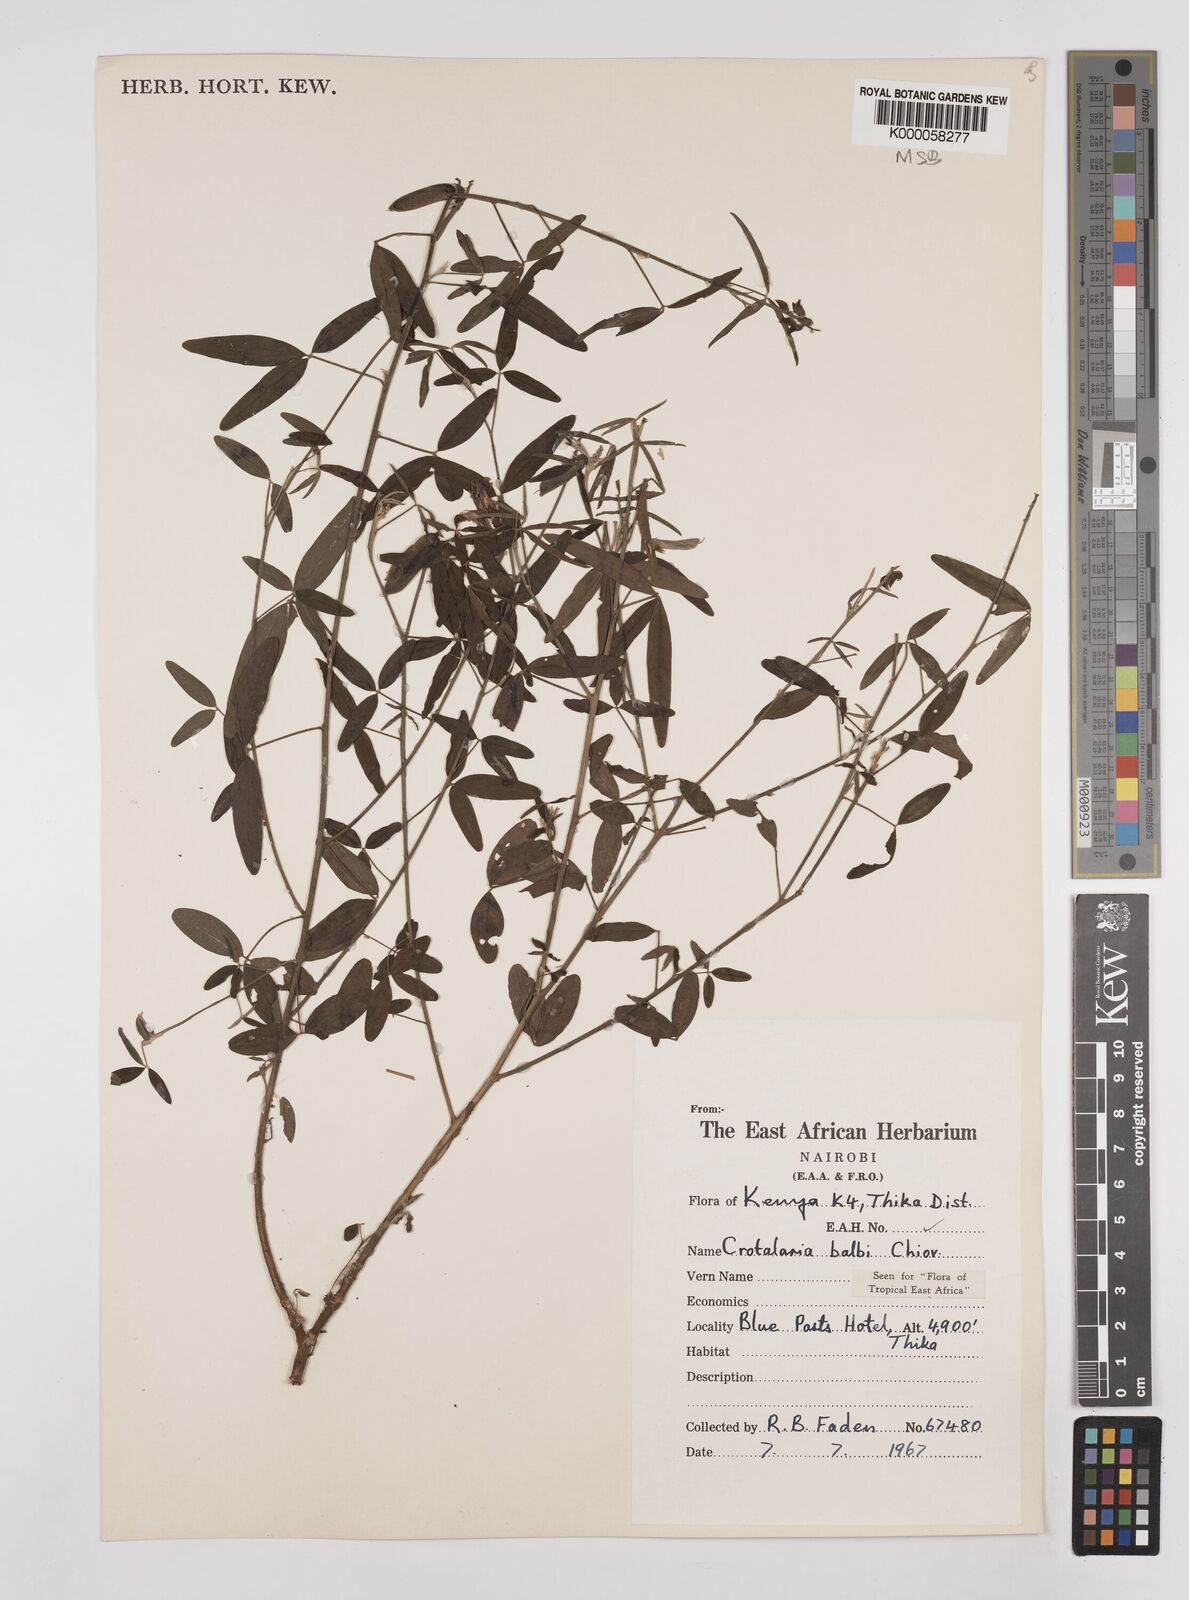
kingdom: Plantae
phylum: Tracheophyta
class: Magnoliopsida
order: Fabales
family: Fabaceae
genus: Crotalaria
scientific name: Crotalaria balbi
